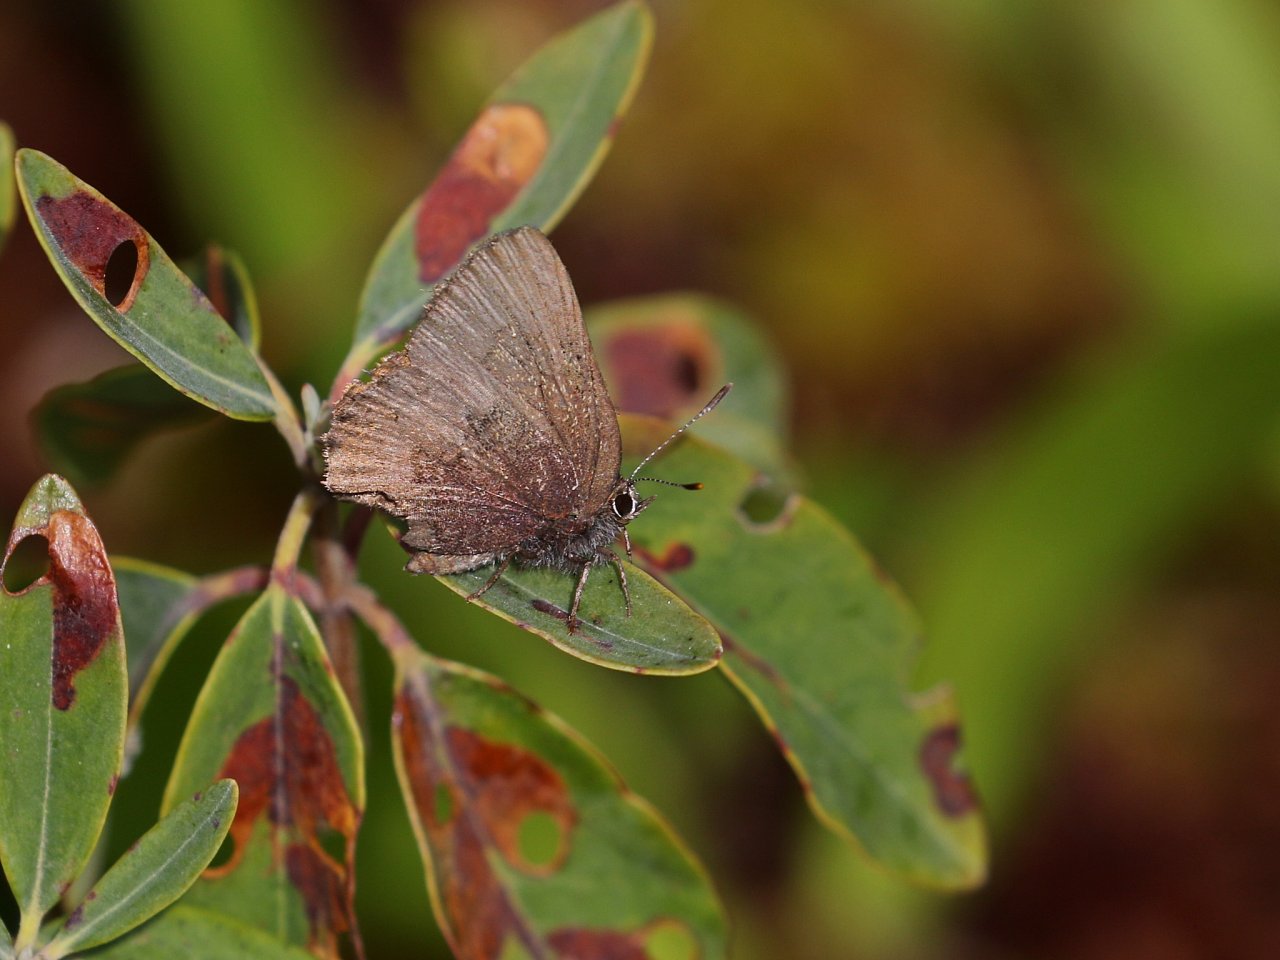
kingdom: Animalia
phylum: Arthropoda
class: Insecta
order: Lepidoptera
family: Lycaenidae
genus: Incisalia
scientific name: Incisalia irioides
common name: Brown Elfin
